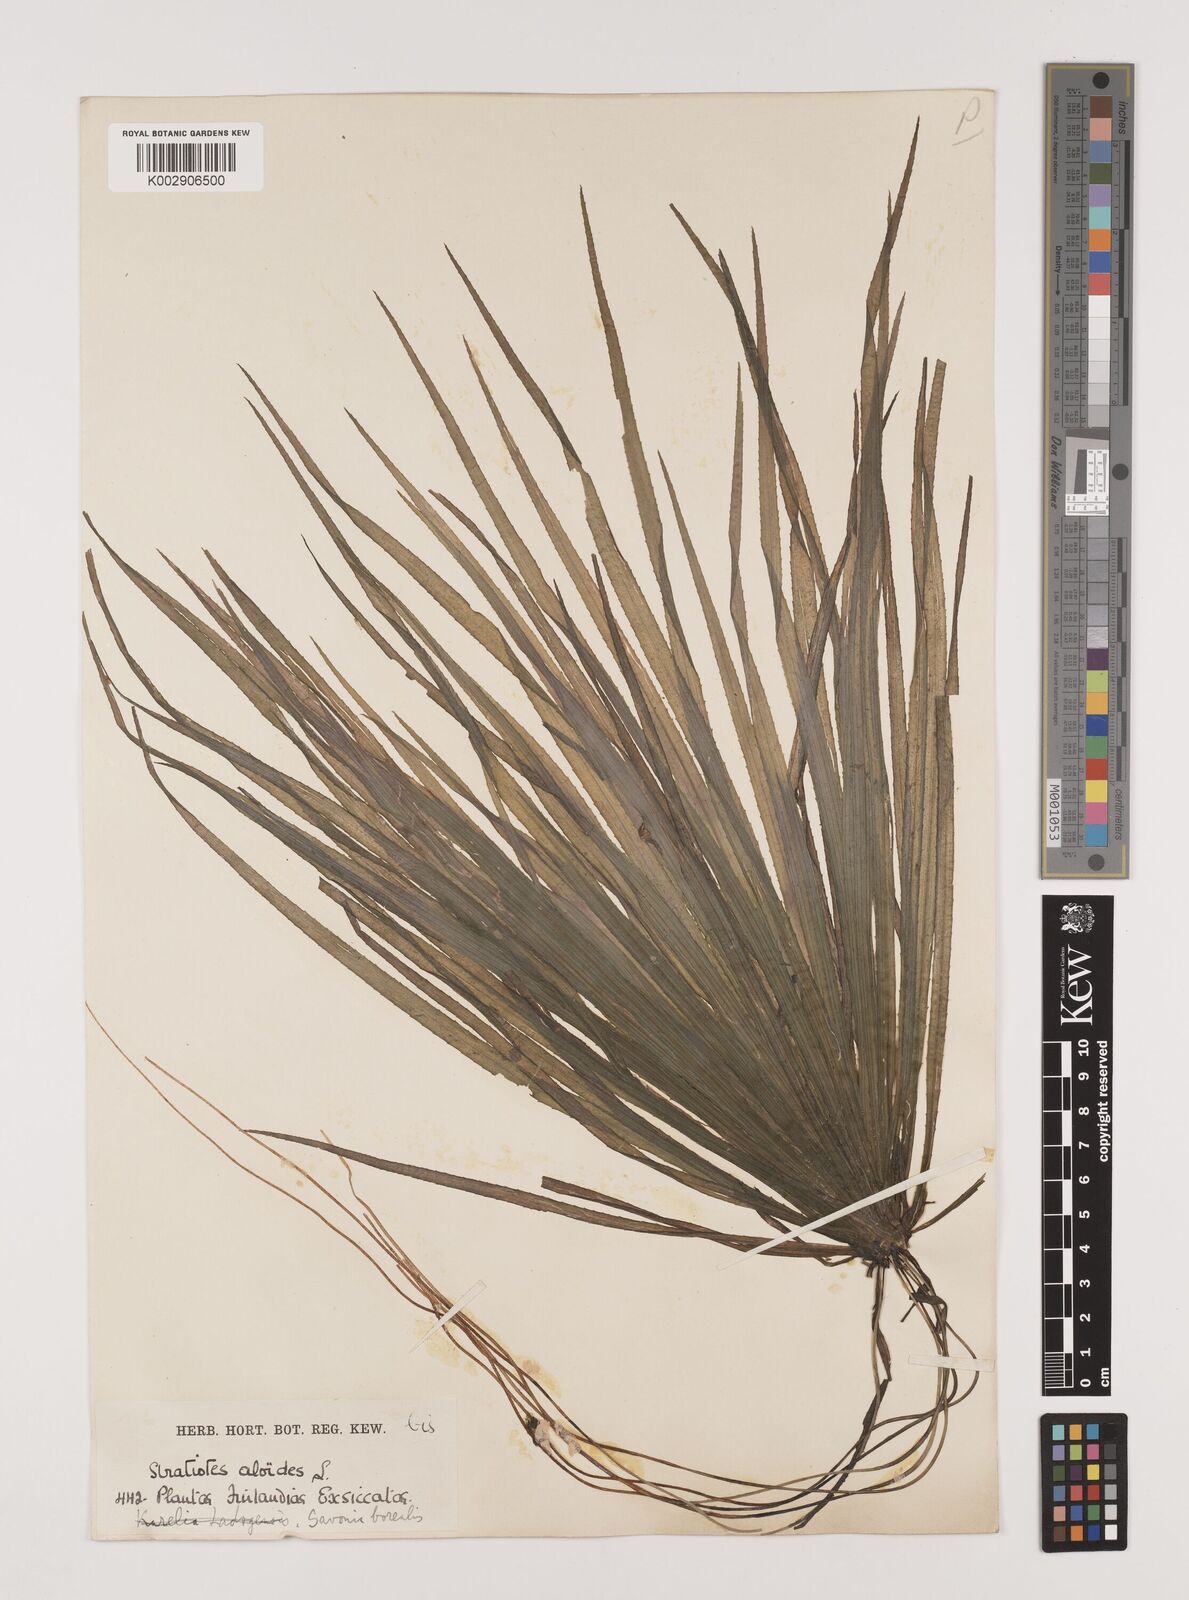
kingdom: Plantae
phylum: Tracheophyta
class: Liliopsida
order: Alismatales
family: Hydrocharitaceae
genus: Stratiotes
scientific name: Stratiotes aloides
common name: Water-soldier
